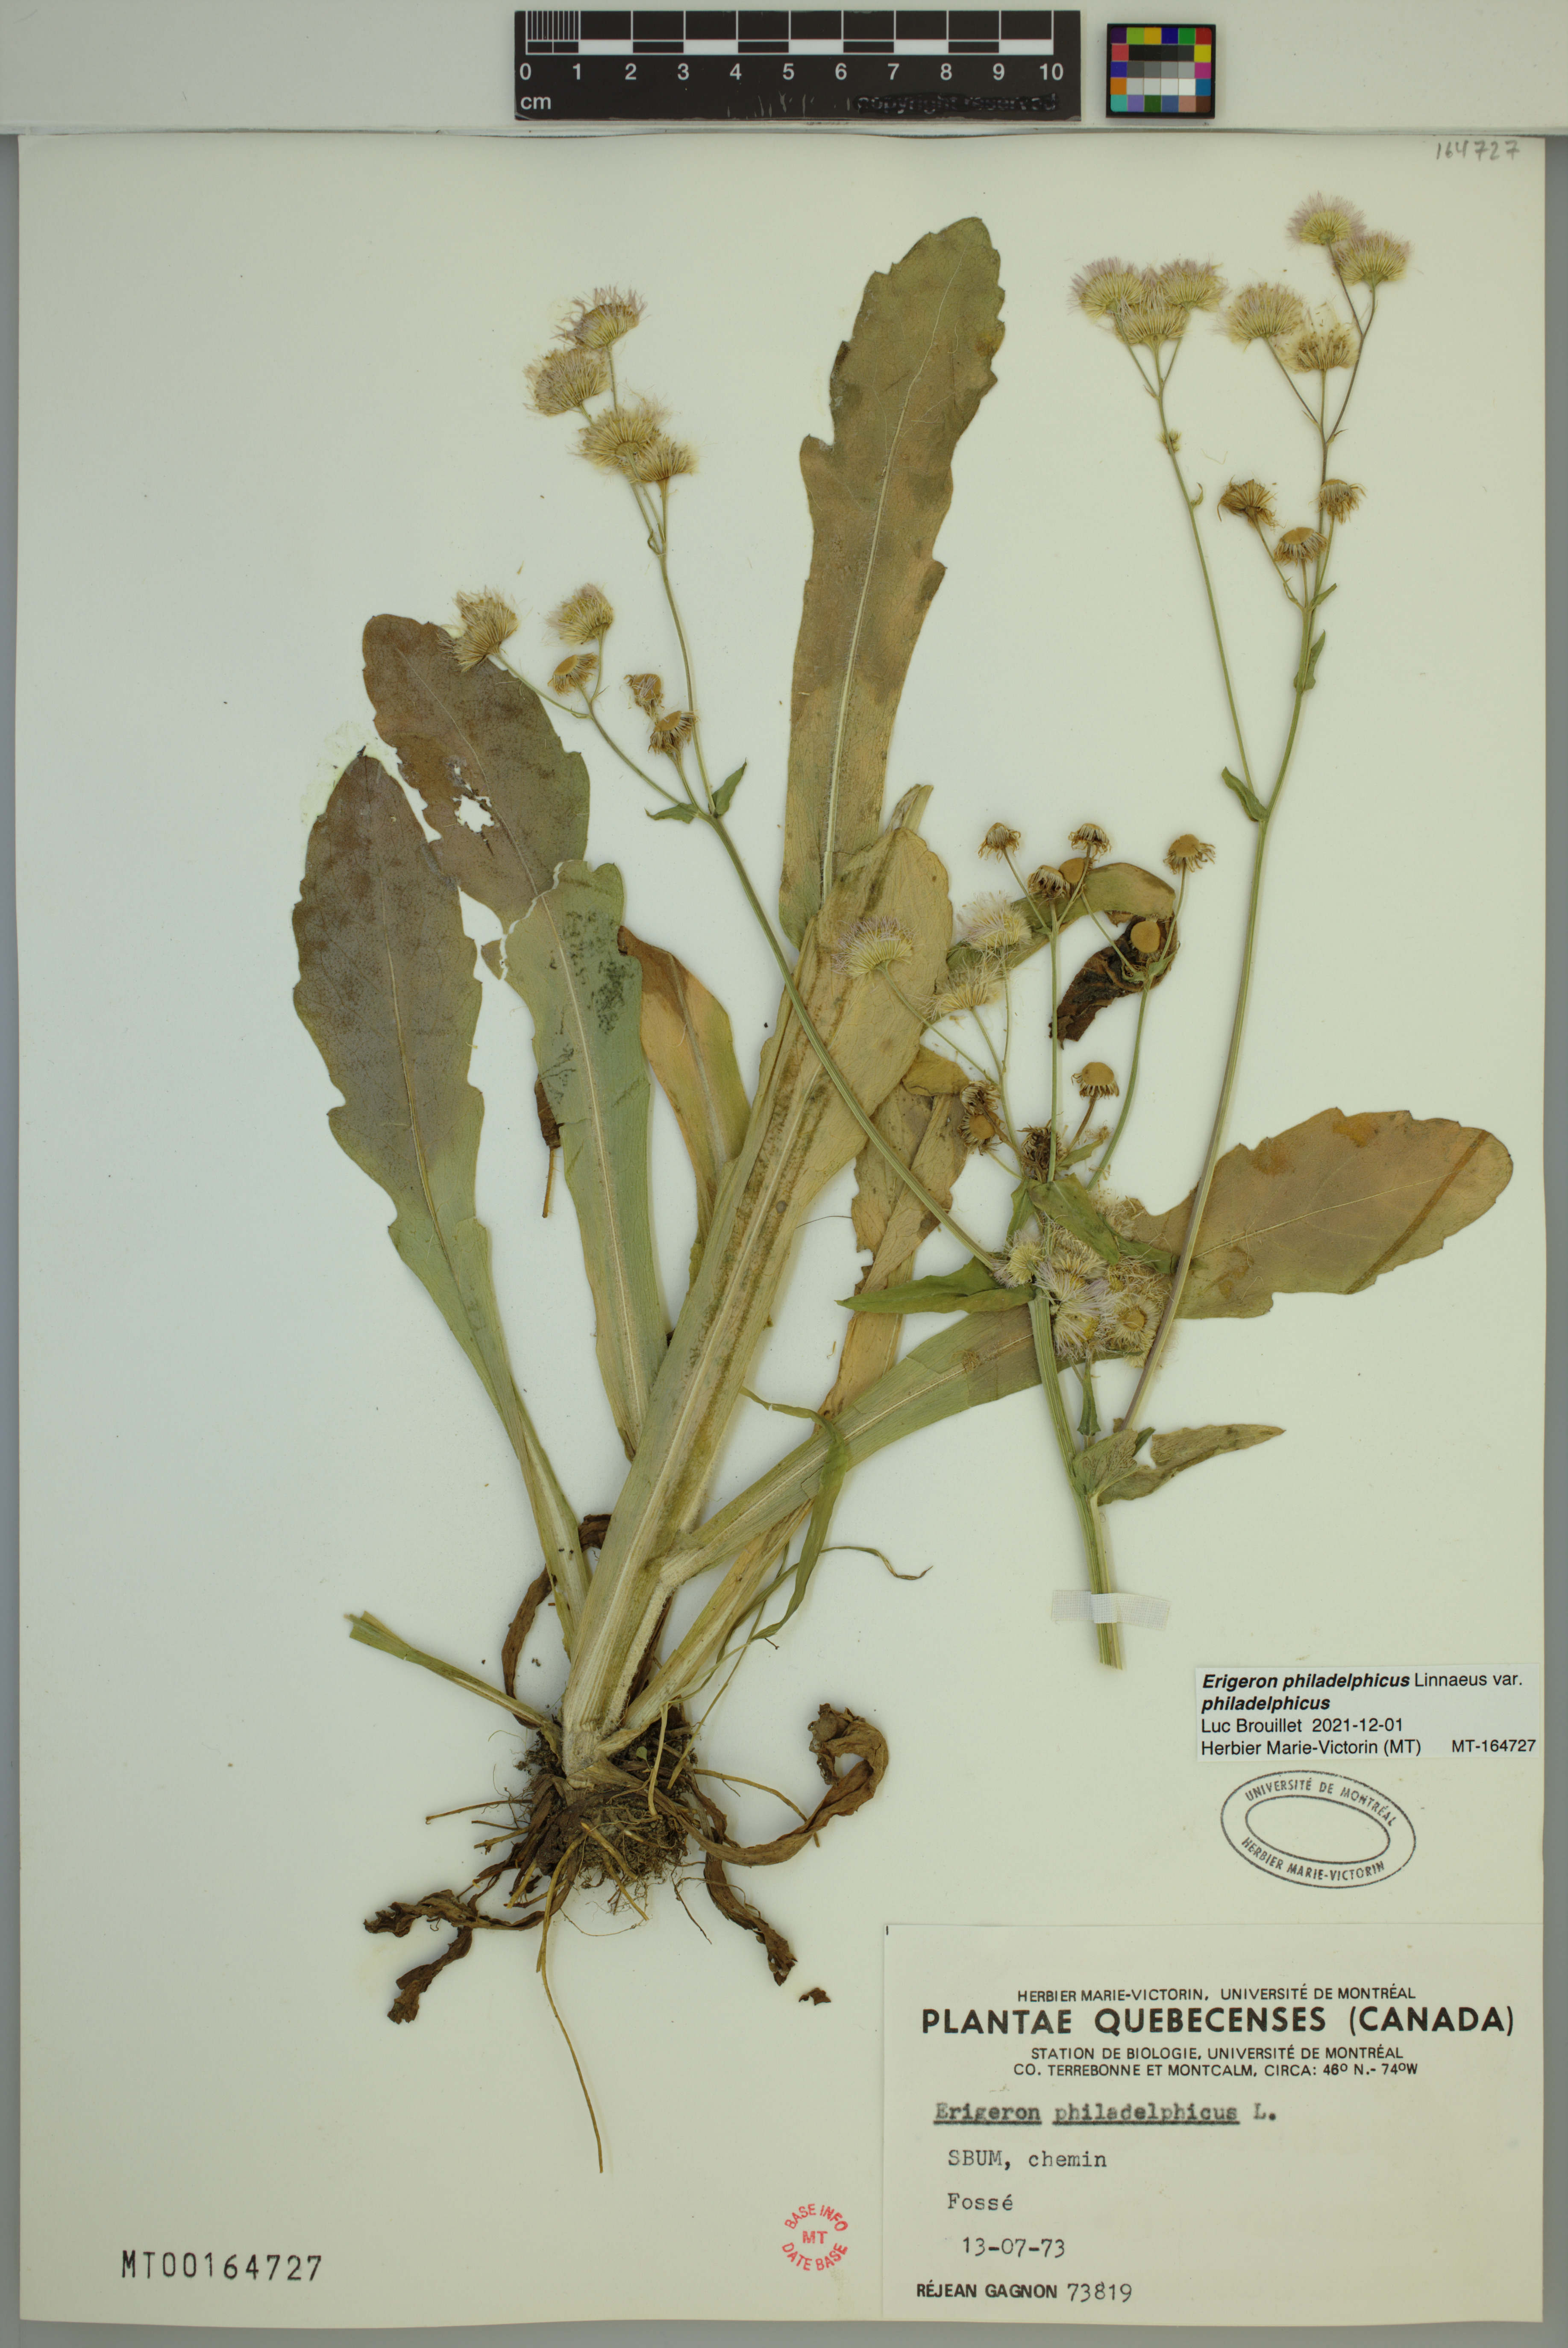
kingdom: Plantae
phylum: Tracheophyta
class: Magnoliopsida
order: Asterales
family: Asteraceae
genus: Erigeron
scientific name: Erigeron philadelphicus
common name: Robin's-plantain
